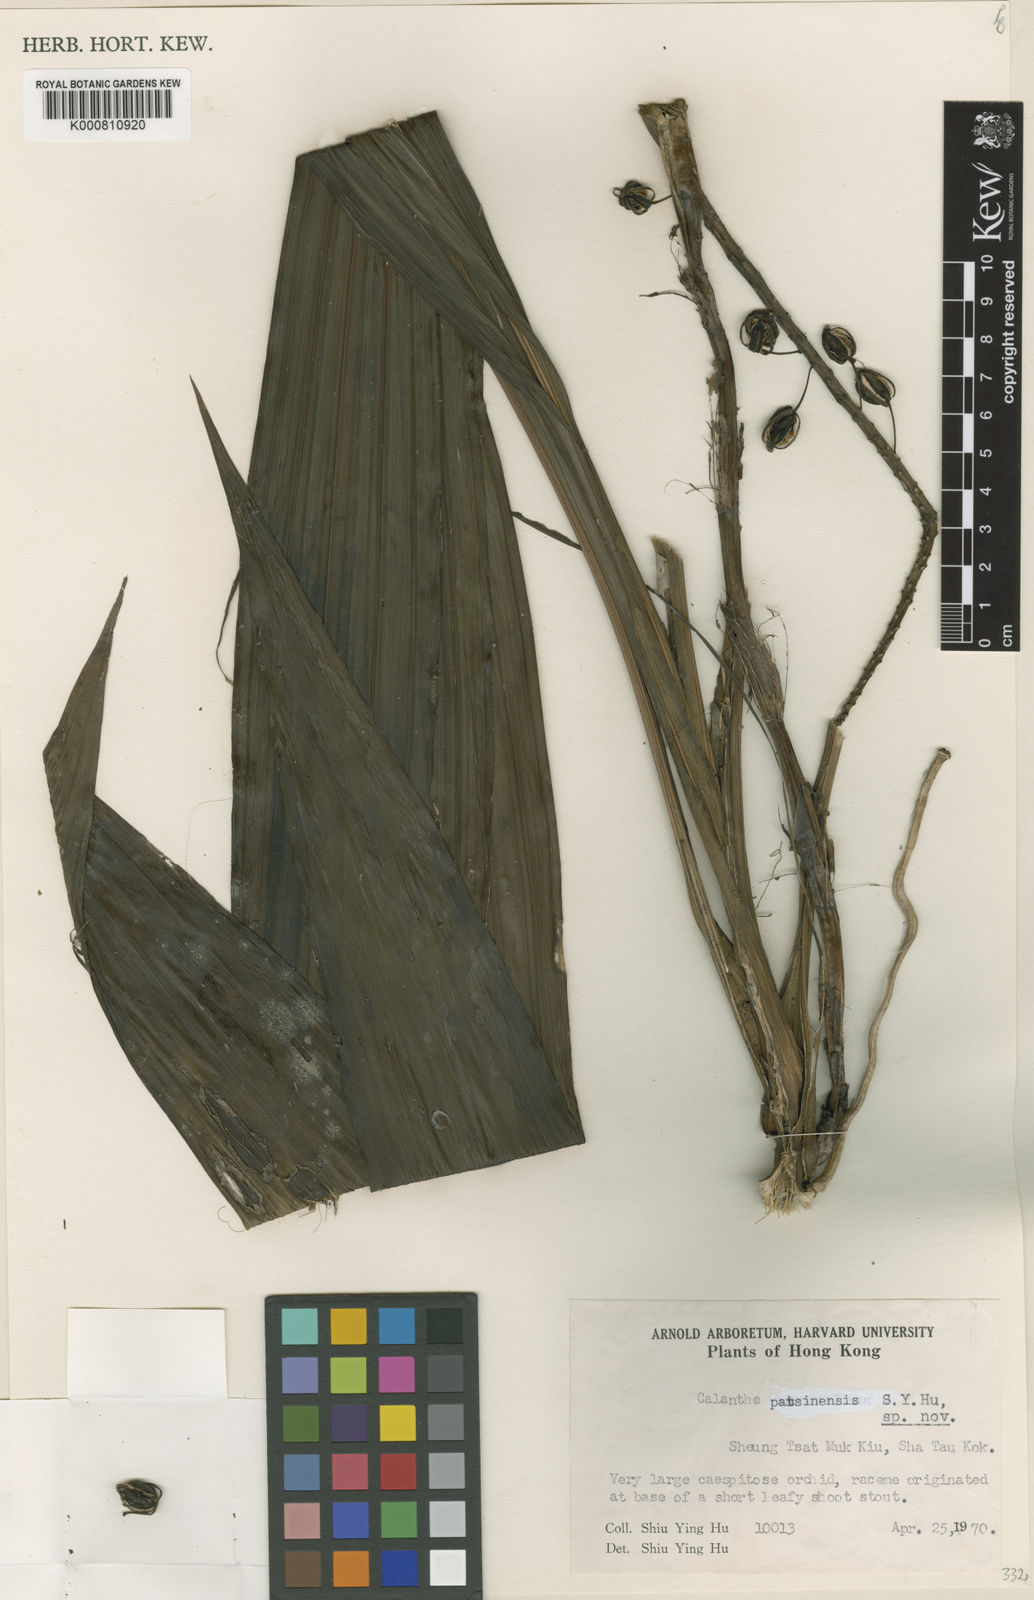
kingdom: Plantae
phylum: Tracheophyta
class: Liliopsida
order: Asparagales
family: Orchidaceae
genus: Calanthe
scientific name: Calanthe speciosa
